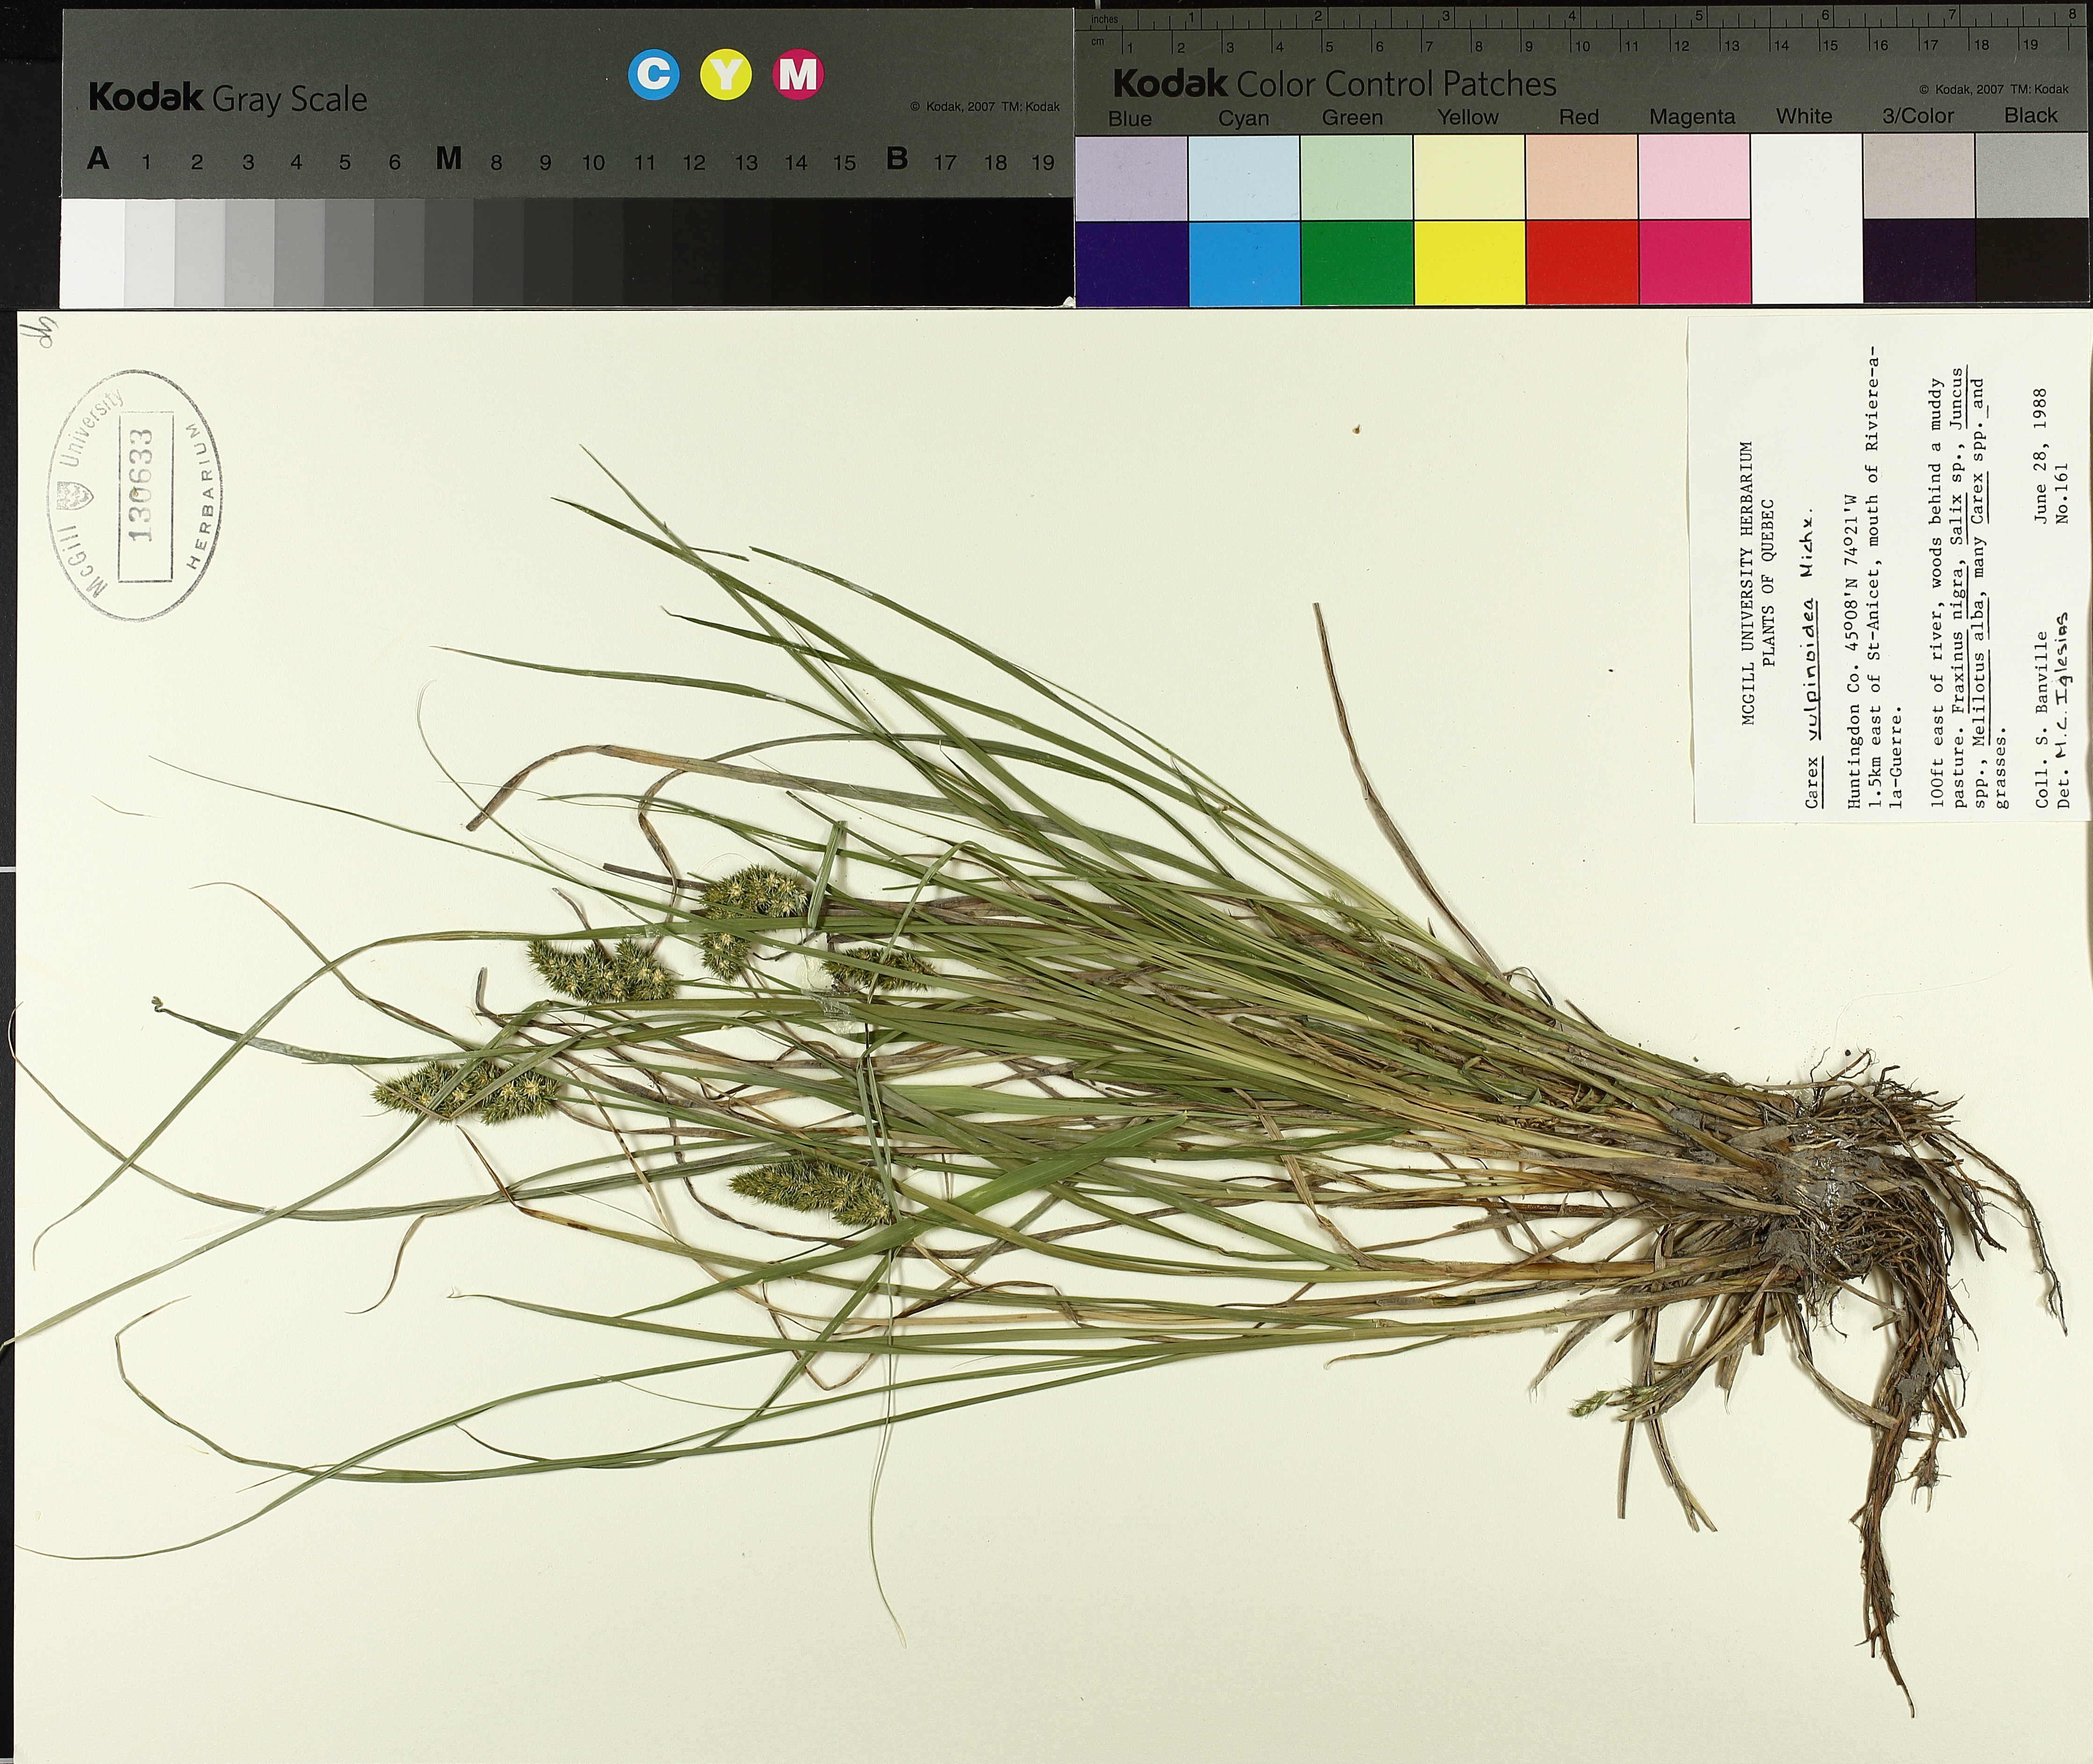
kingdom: Plantae
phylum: Tracheophyta
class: Liliopsida
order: Poales
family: Cyperaceae
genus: Carex
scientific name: Carex vulpinoidea
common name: American fox-sedge
